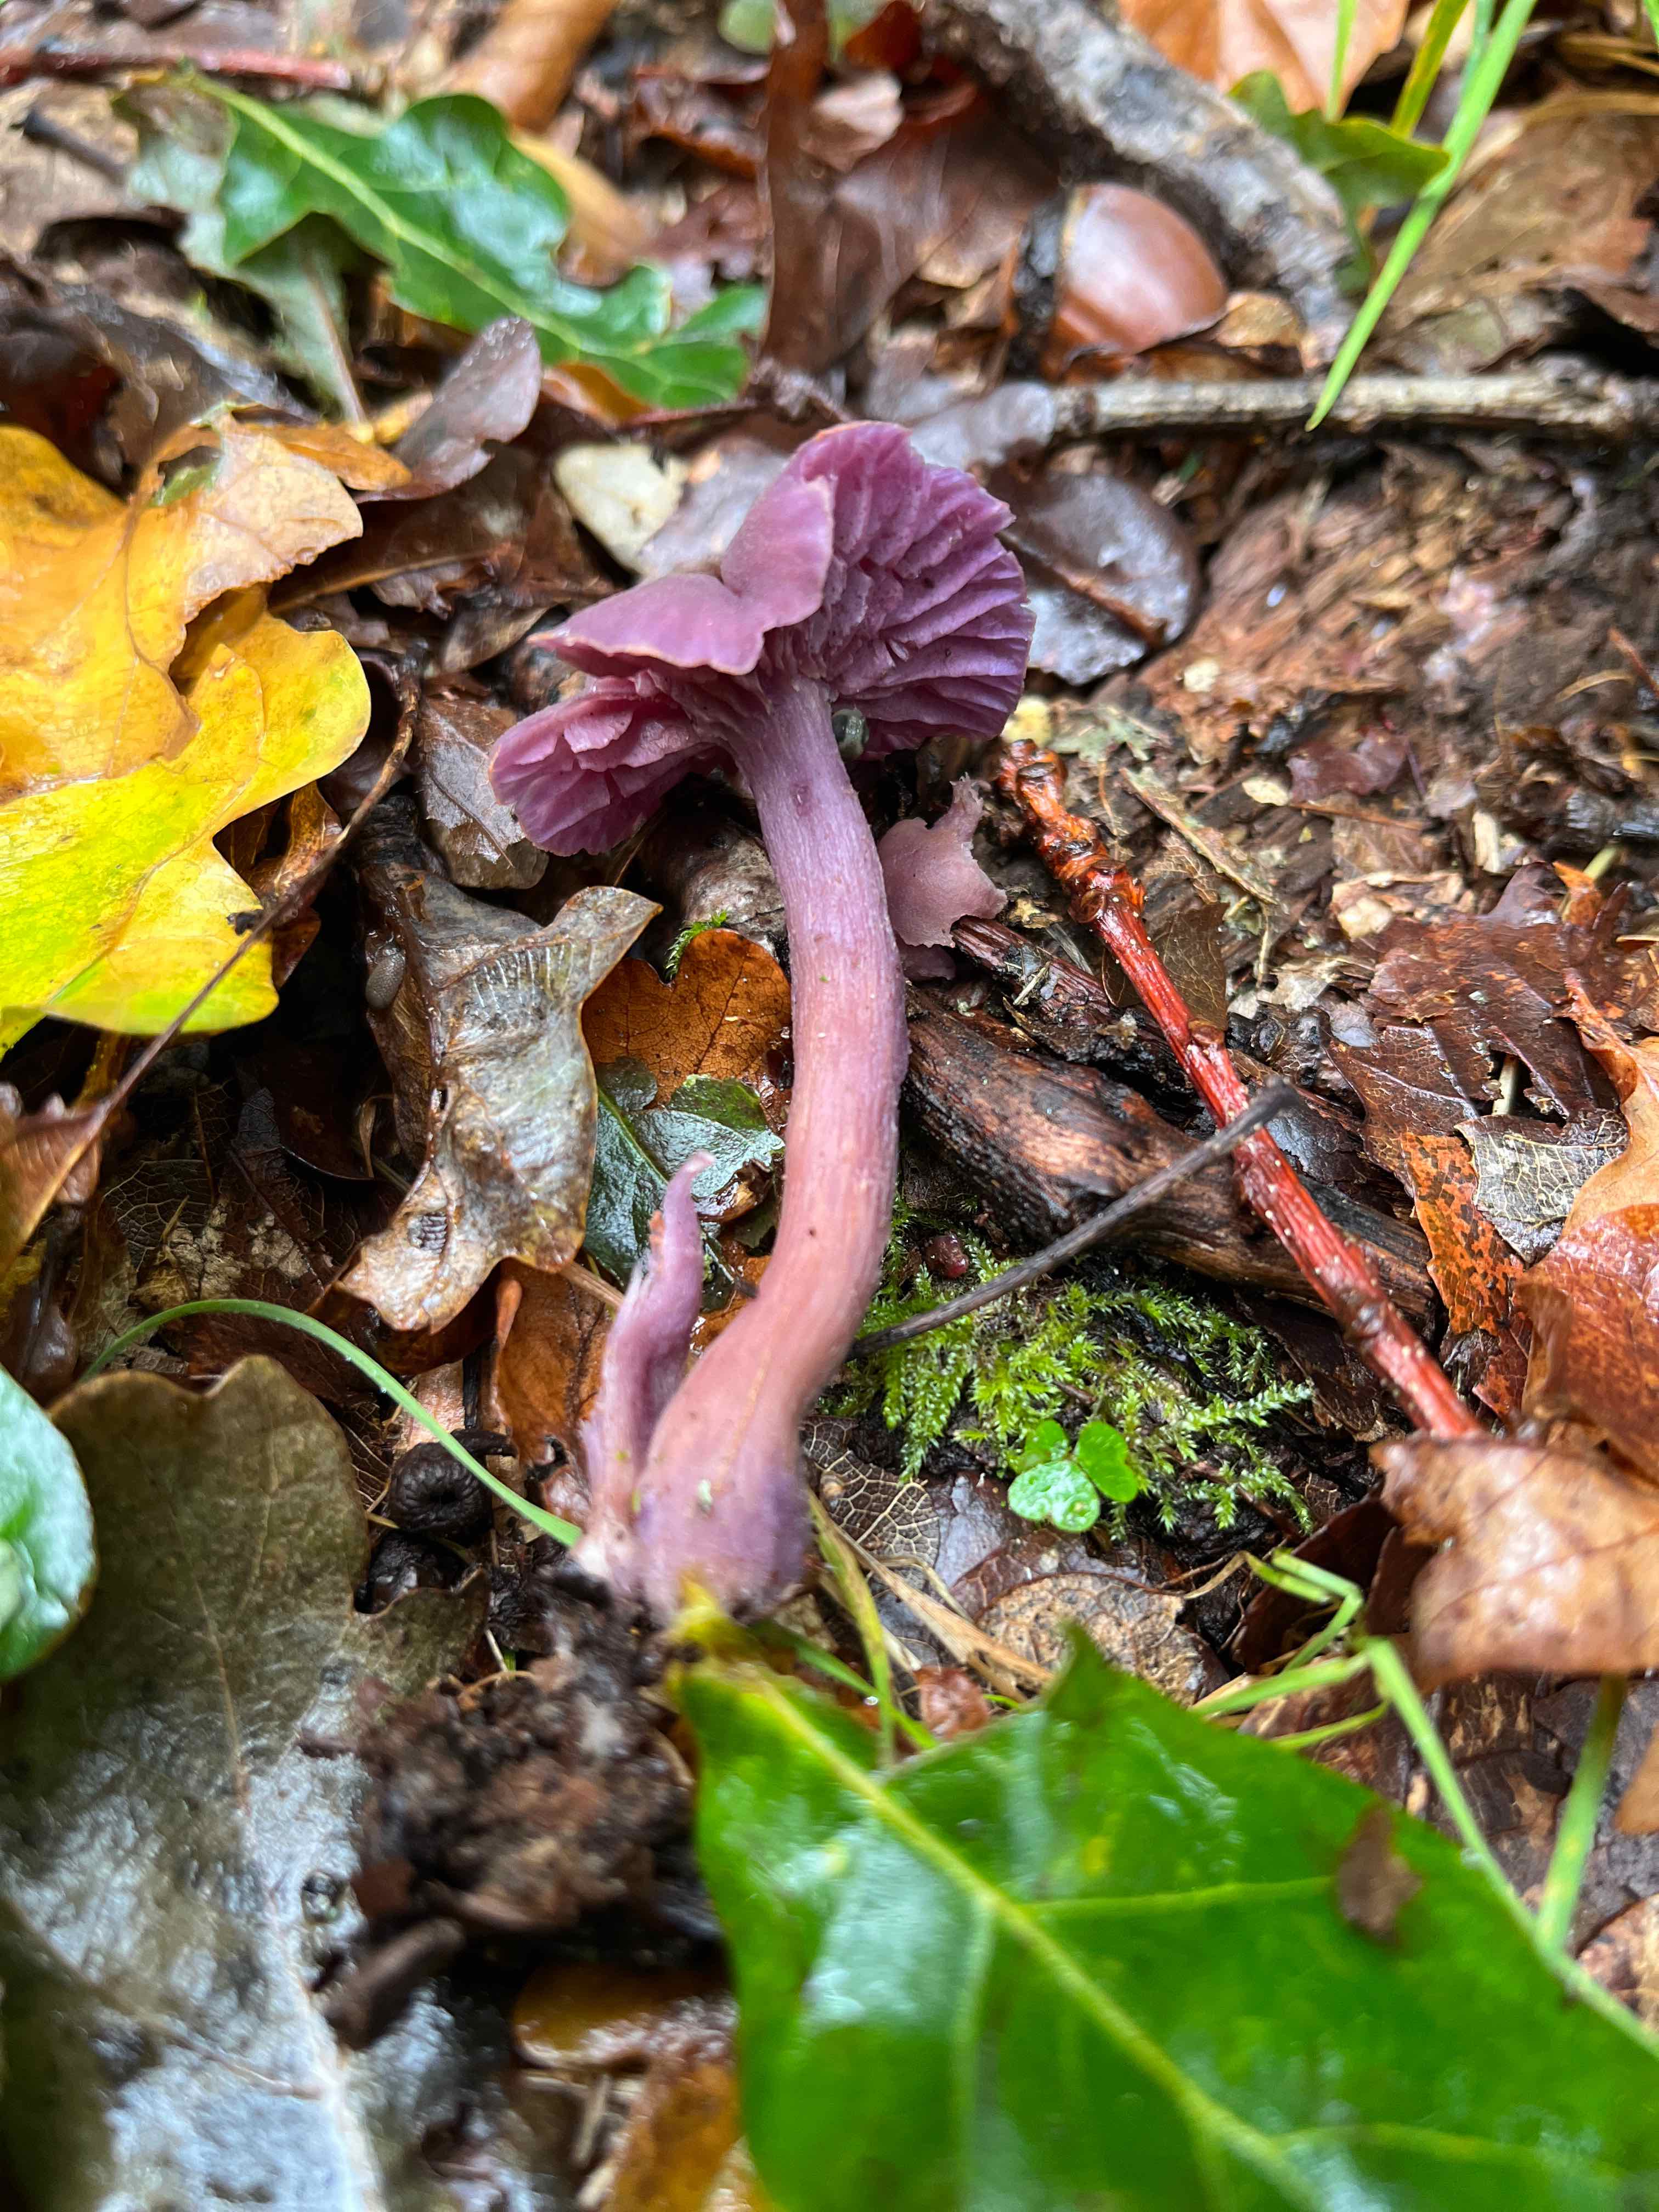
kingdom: Fungi
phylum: Basidiomycota
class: Agaricomycetes
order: Agaricales
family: Hydnangiaceae
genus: Laccaria
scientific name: Laccaria amethystina
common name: violet ametysthat
